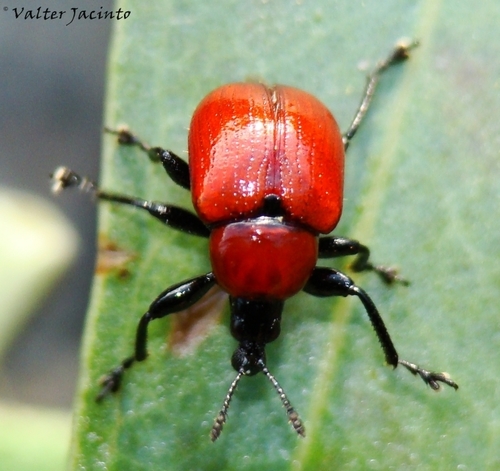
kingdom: Animalia
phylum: Arthropoda
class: Insecta
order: Coleoptera
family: Attelabidae
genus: Attelabus
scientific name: Attelabus nitens
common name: Oak leaf-roller
